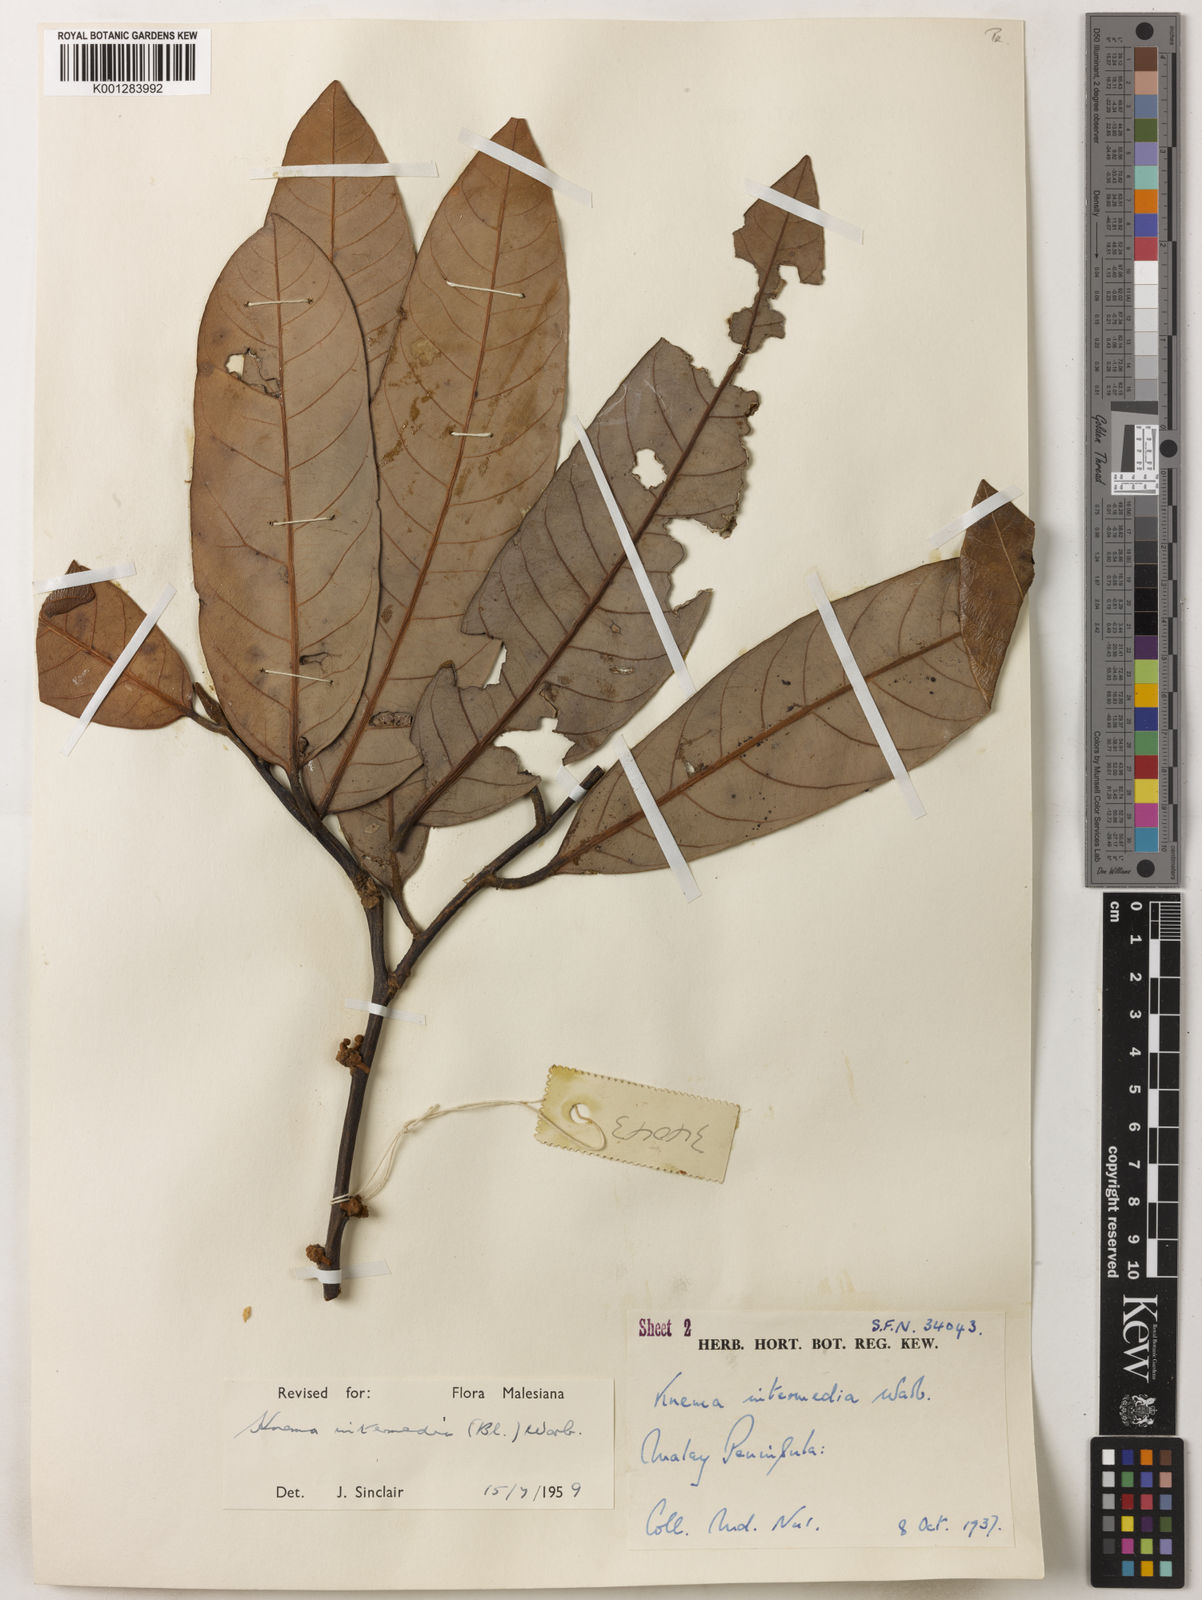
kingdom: Plantae
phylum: Tracheophyta
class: Magnoliopsida
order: Magnoliales
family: Myristicaceae
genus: Knema
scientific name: Knema intermedia
